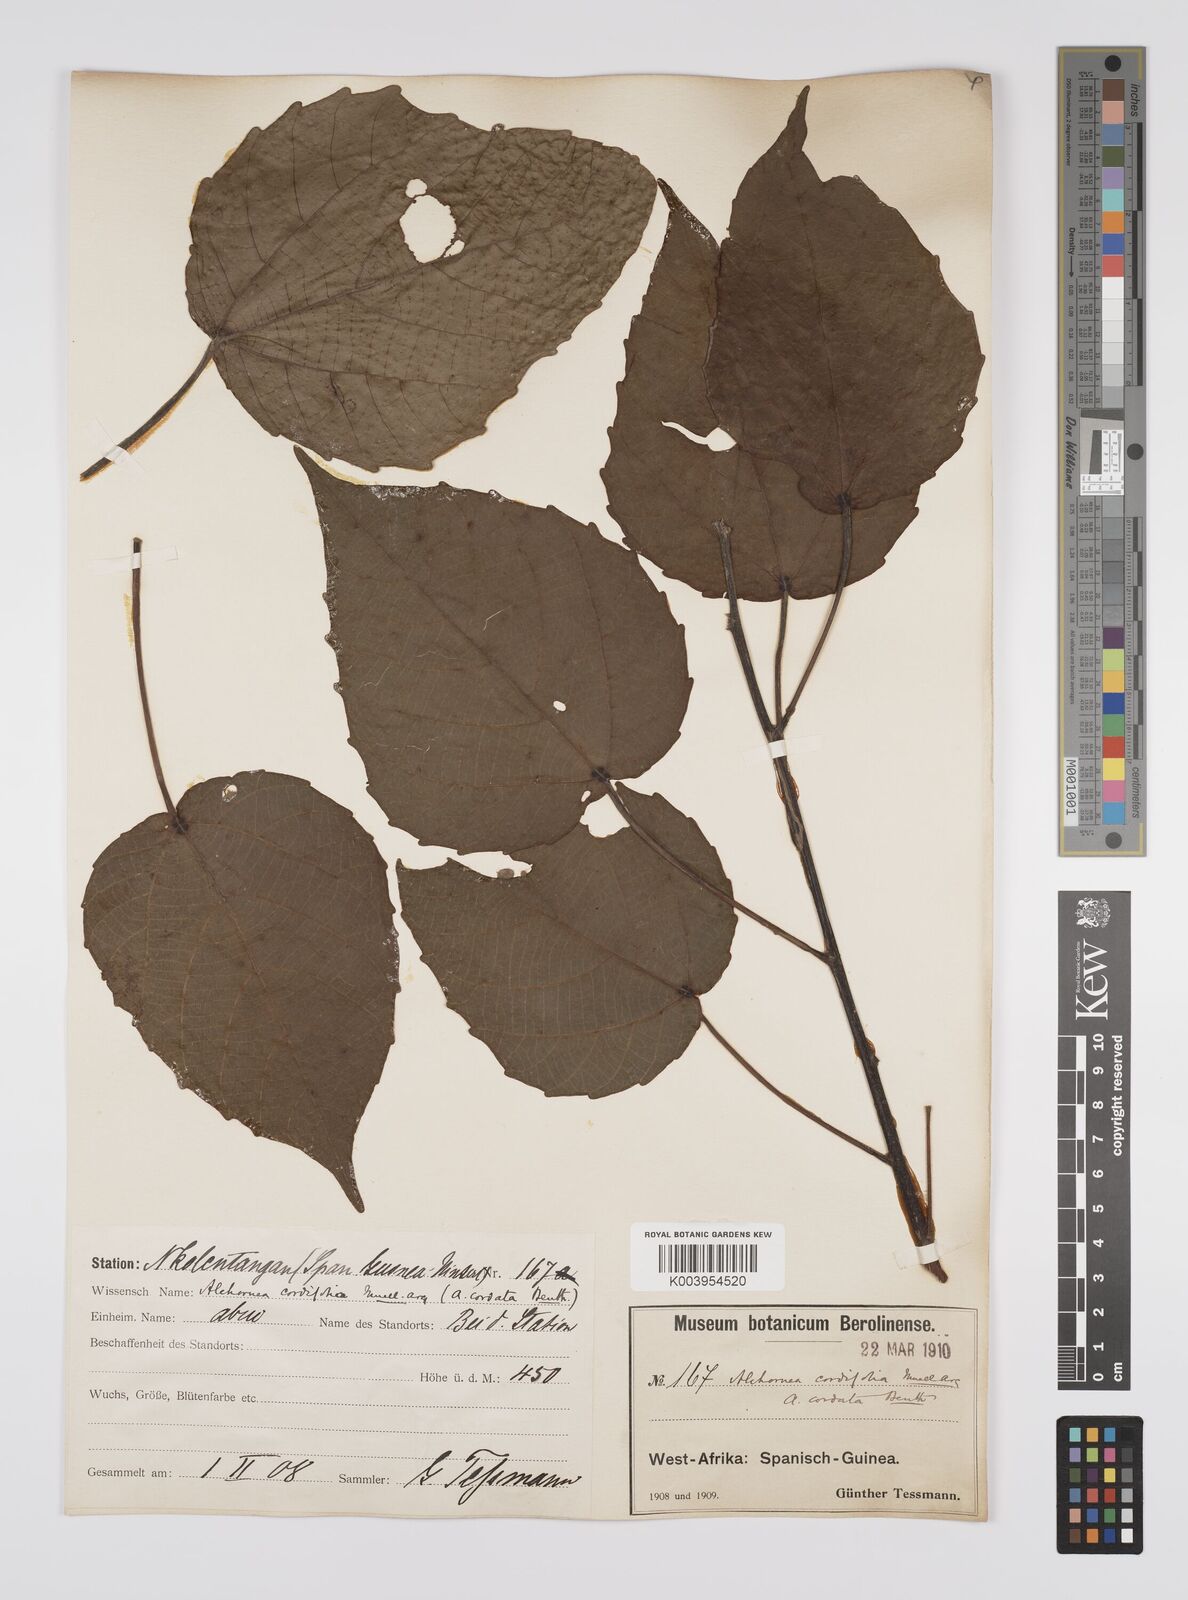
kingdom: Plantae
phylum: Tracheophyta
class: Magnoliopsida
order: Malpighiales
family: Euphorbiaceae
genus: Alchornea
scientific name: Alchornea cordifolia
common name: Christmasbush
